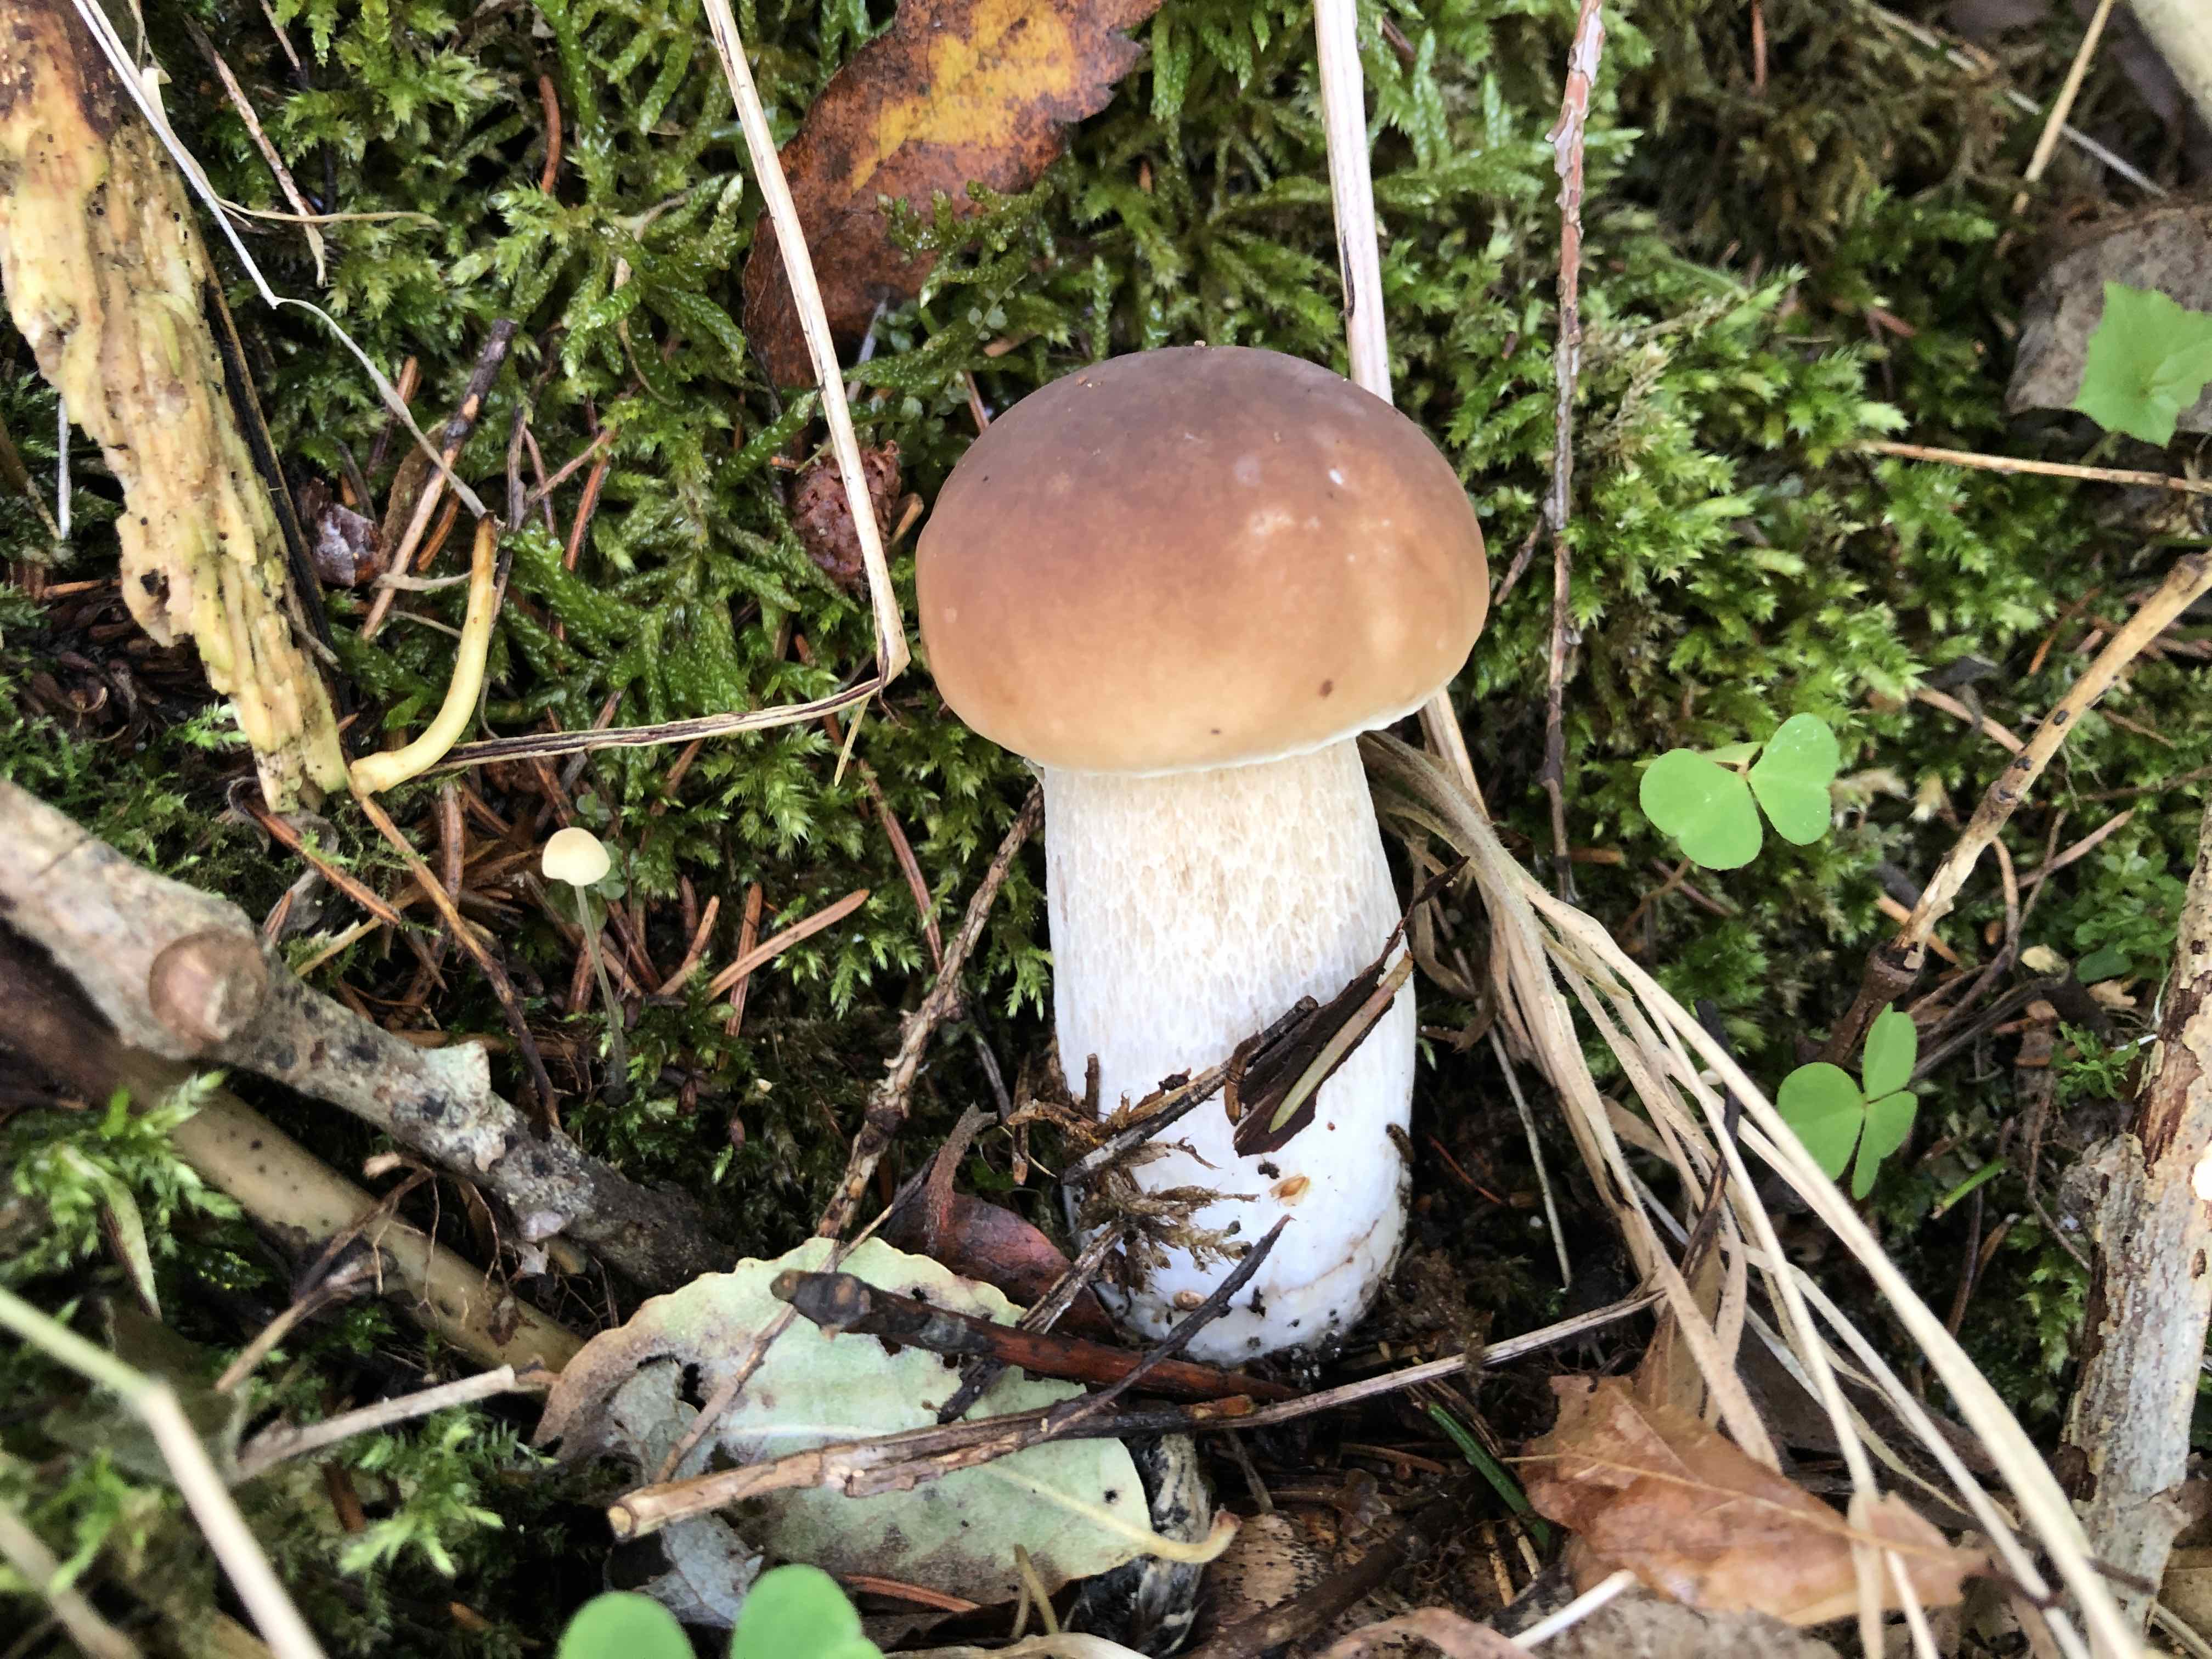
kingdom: Fungi
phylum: Basidiomycota
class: Agaricomycetes
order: Boletales
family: Boletaceae
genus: Boletus
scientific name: Boletus edulis
